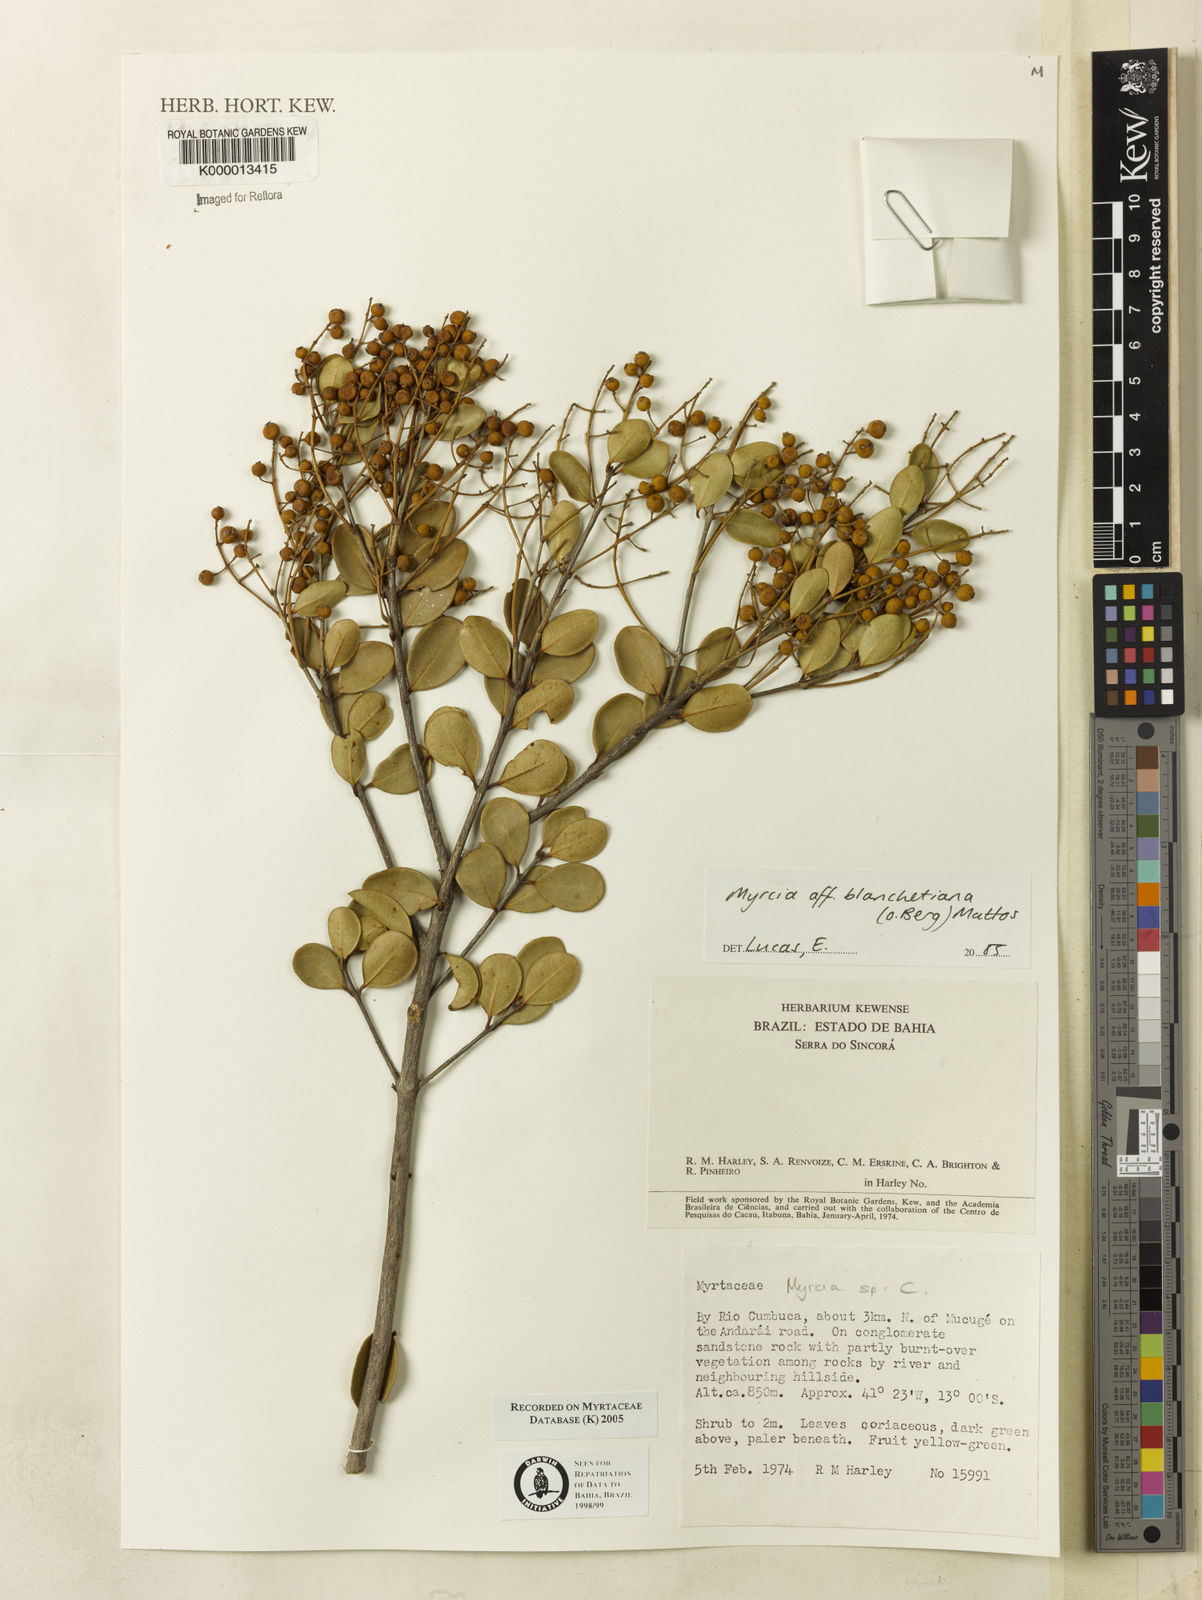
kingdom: Plantae
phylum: Tracheophyta
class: Magnoliopsida
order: Myrtales
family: Myrtaceae
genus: Myrcia
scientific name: Myrcia
